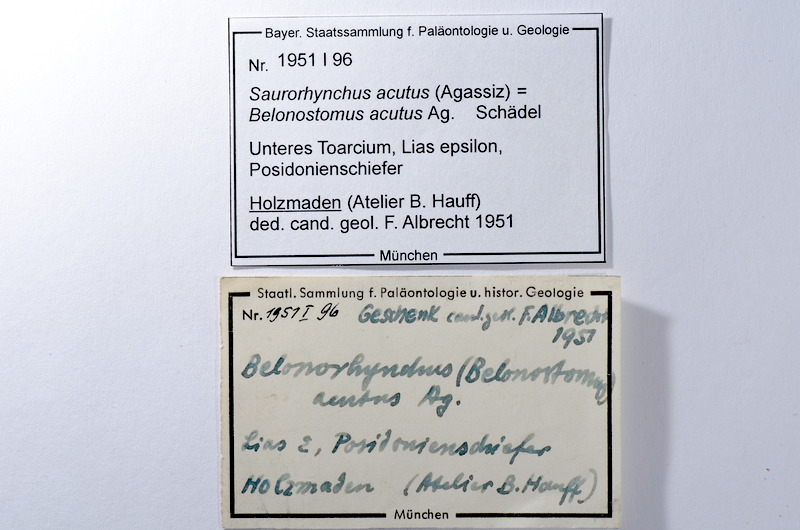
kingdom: Animalia
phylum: Chordata
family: Saurichthyidae
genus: Saurorhynchus
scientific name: Saurorhynchus acutus
